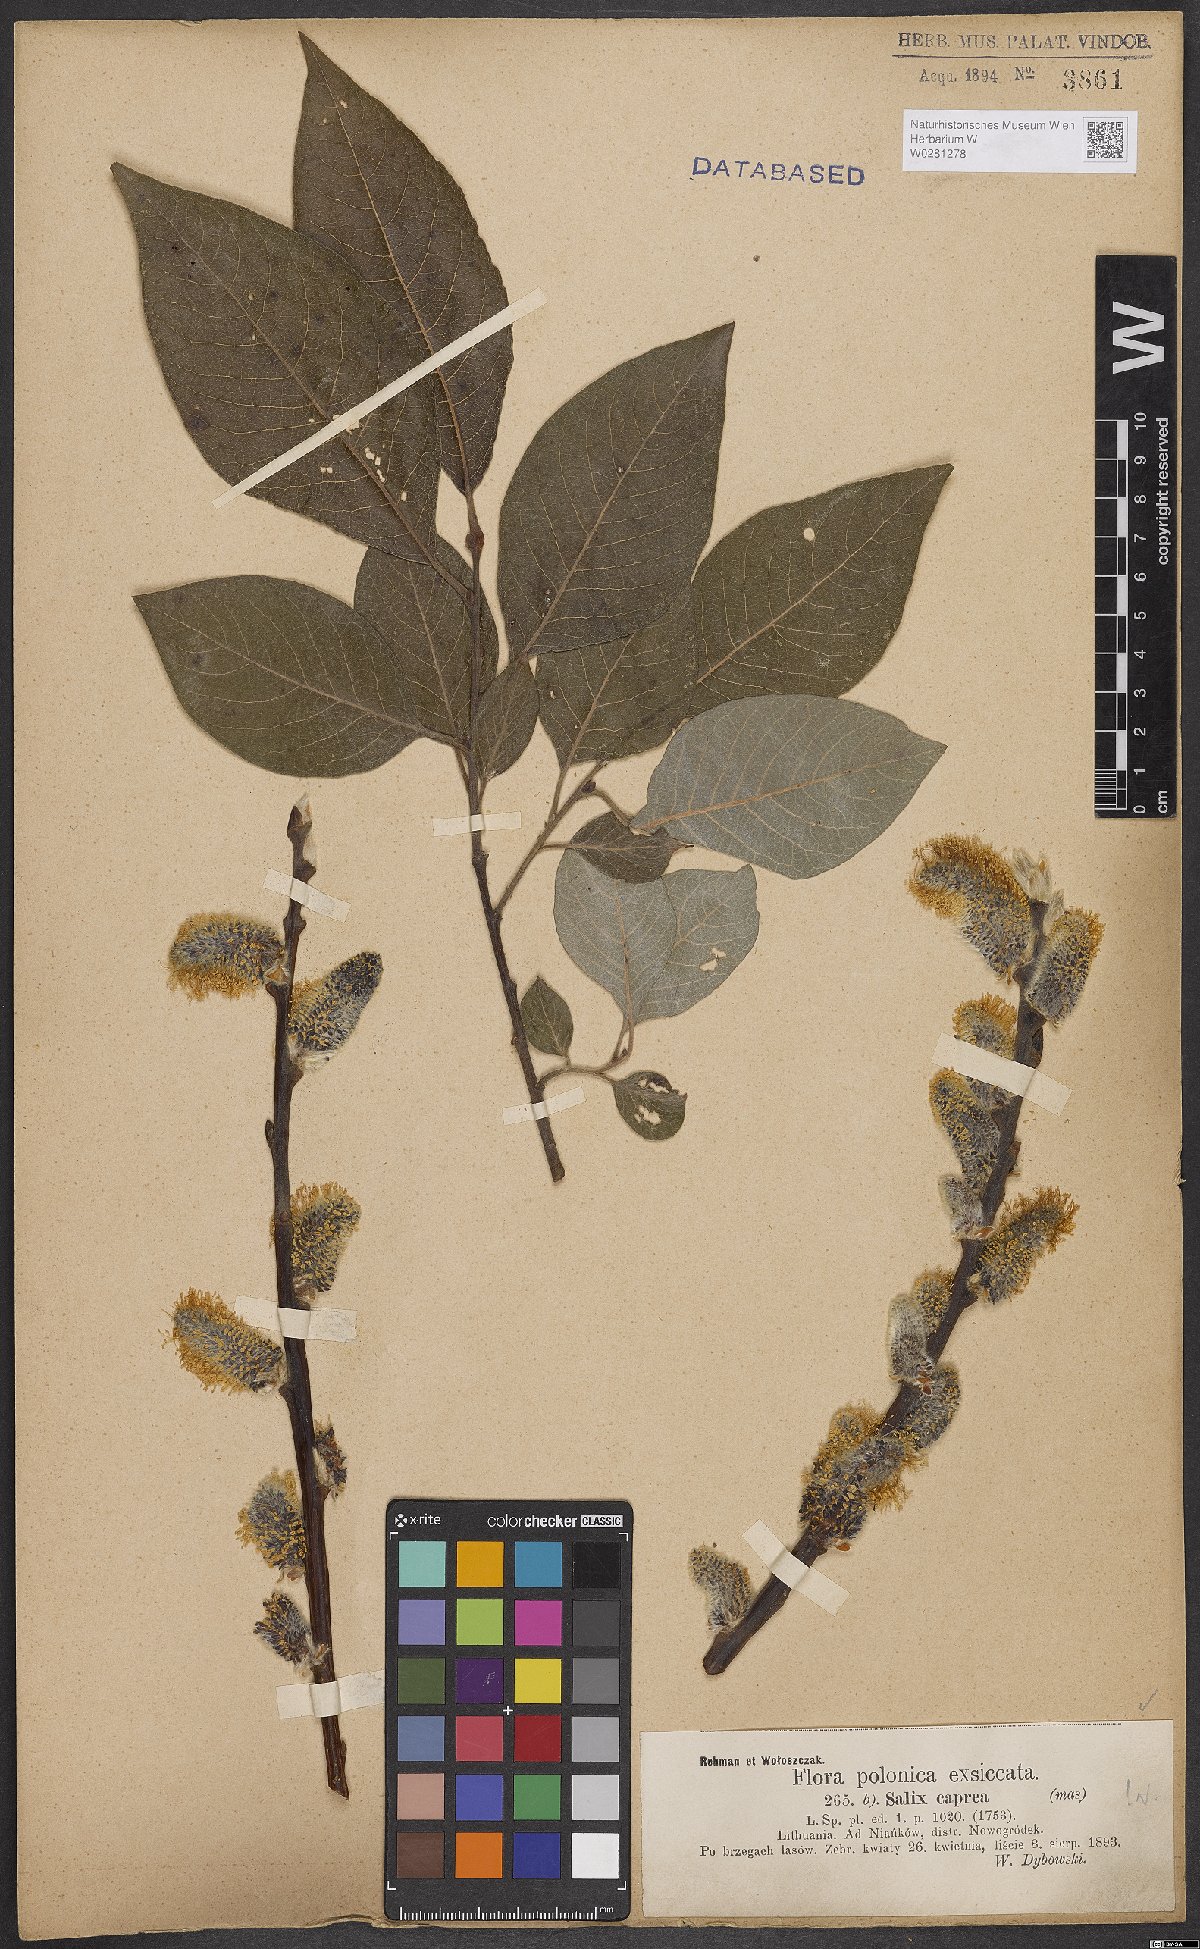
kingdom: Plantae
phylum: Tracheophyta
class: Magnoliopsida
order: Malpighiales
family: Salicaceae
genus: Salix
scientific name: Salix caprea
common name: Goat willow
